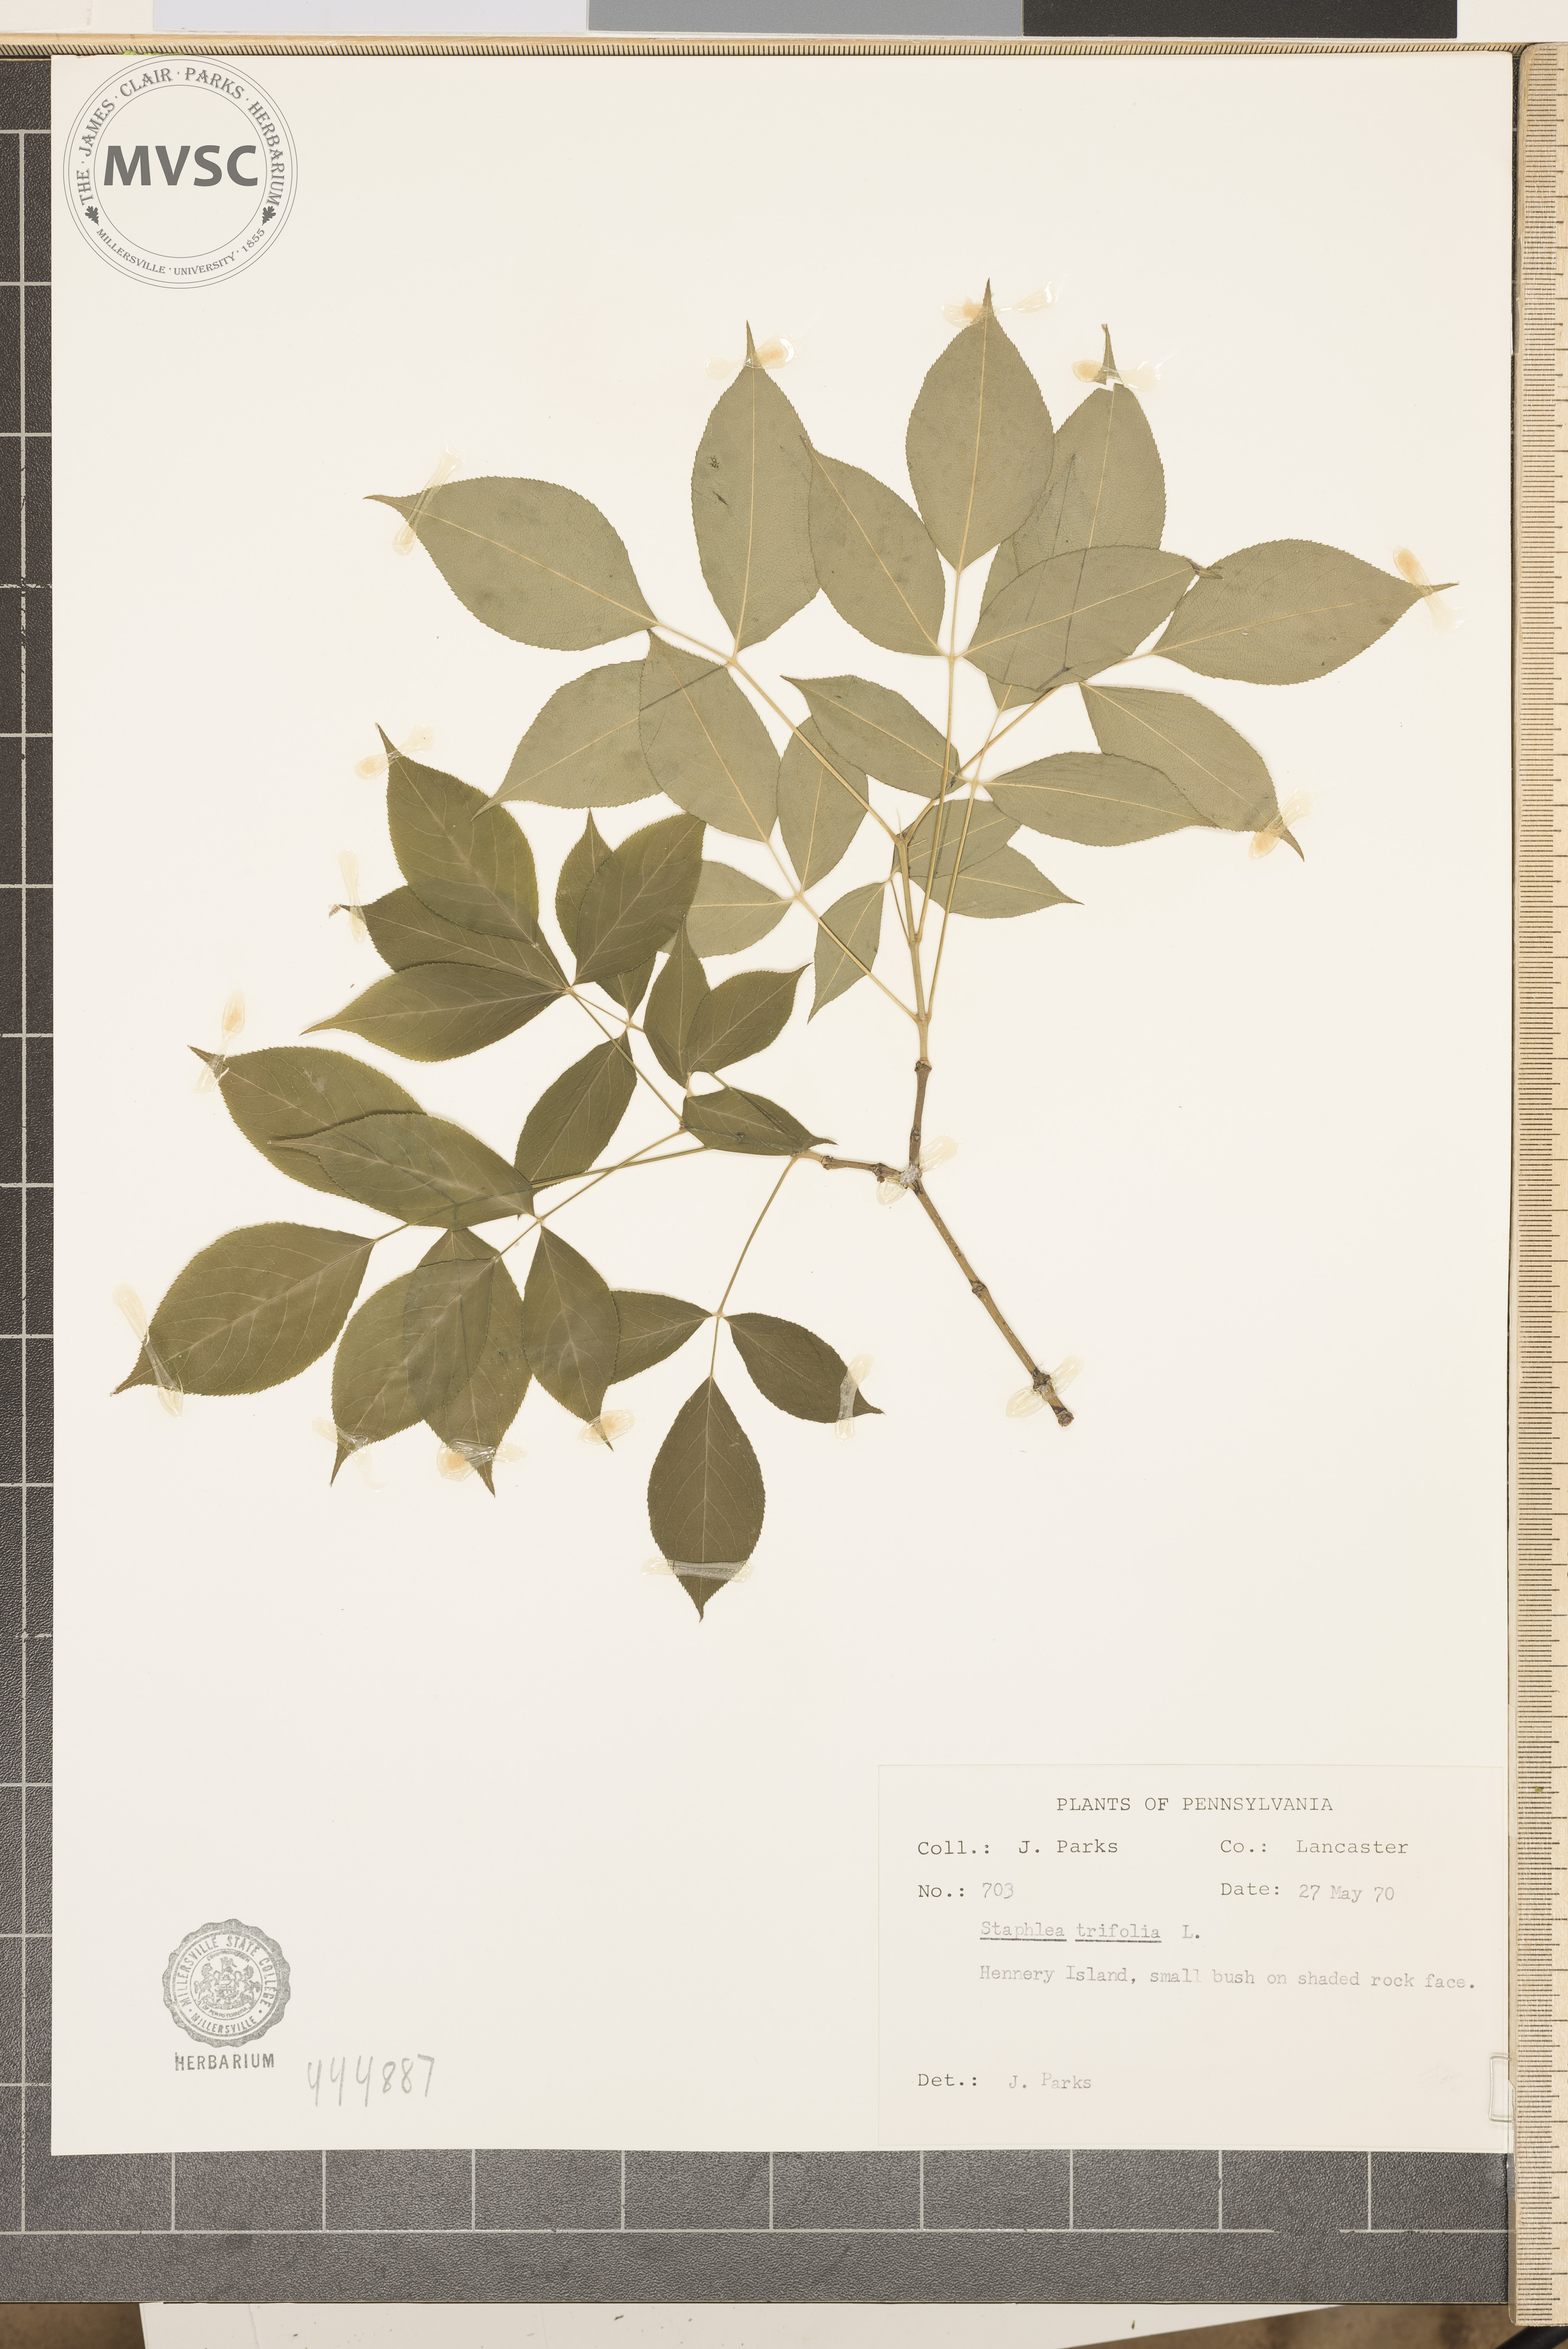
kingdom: Plantae
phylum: Tracheophyta
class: Magnoliopsida
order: Crossosomatales
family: Staphyleaceae
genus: Staphylea
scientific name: Staphylea trifolia
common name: American bladdernut
